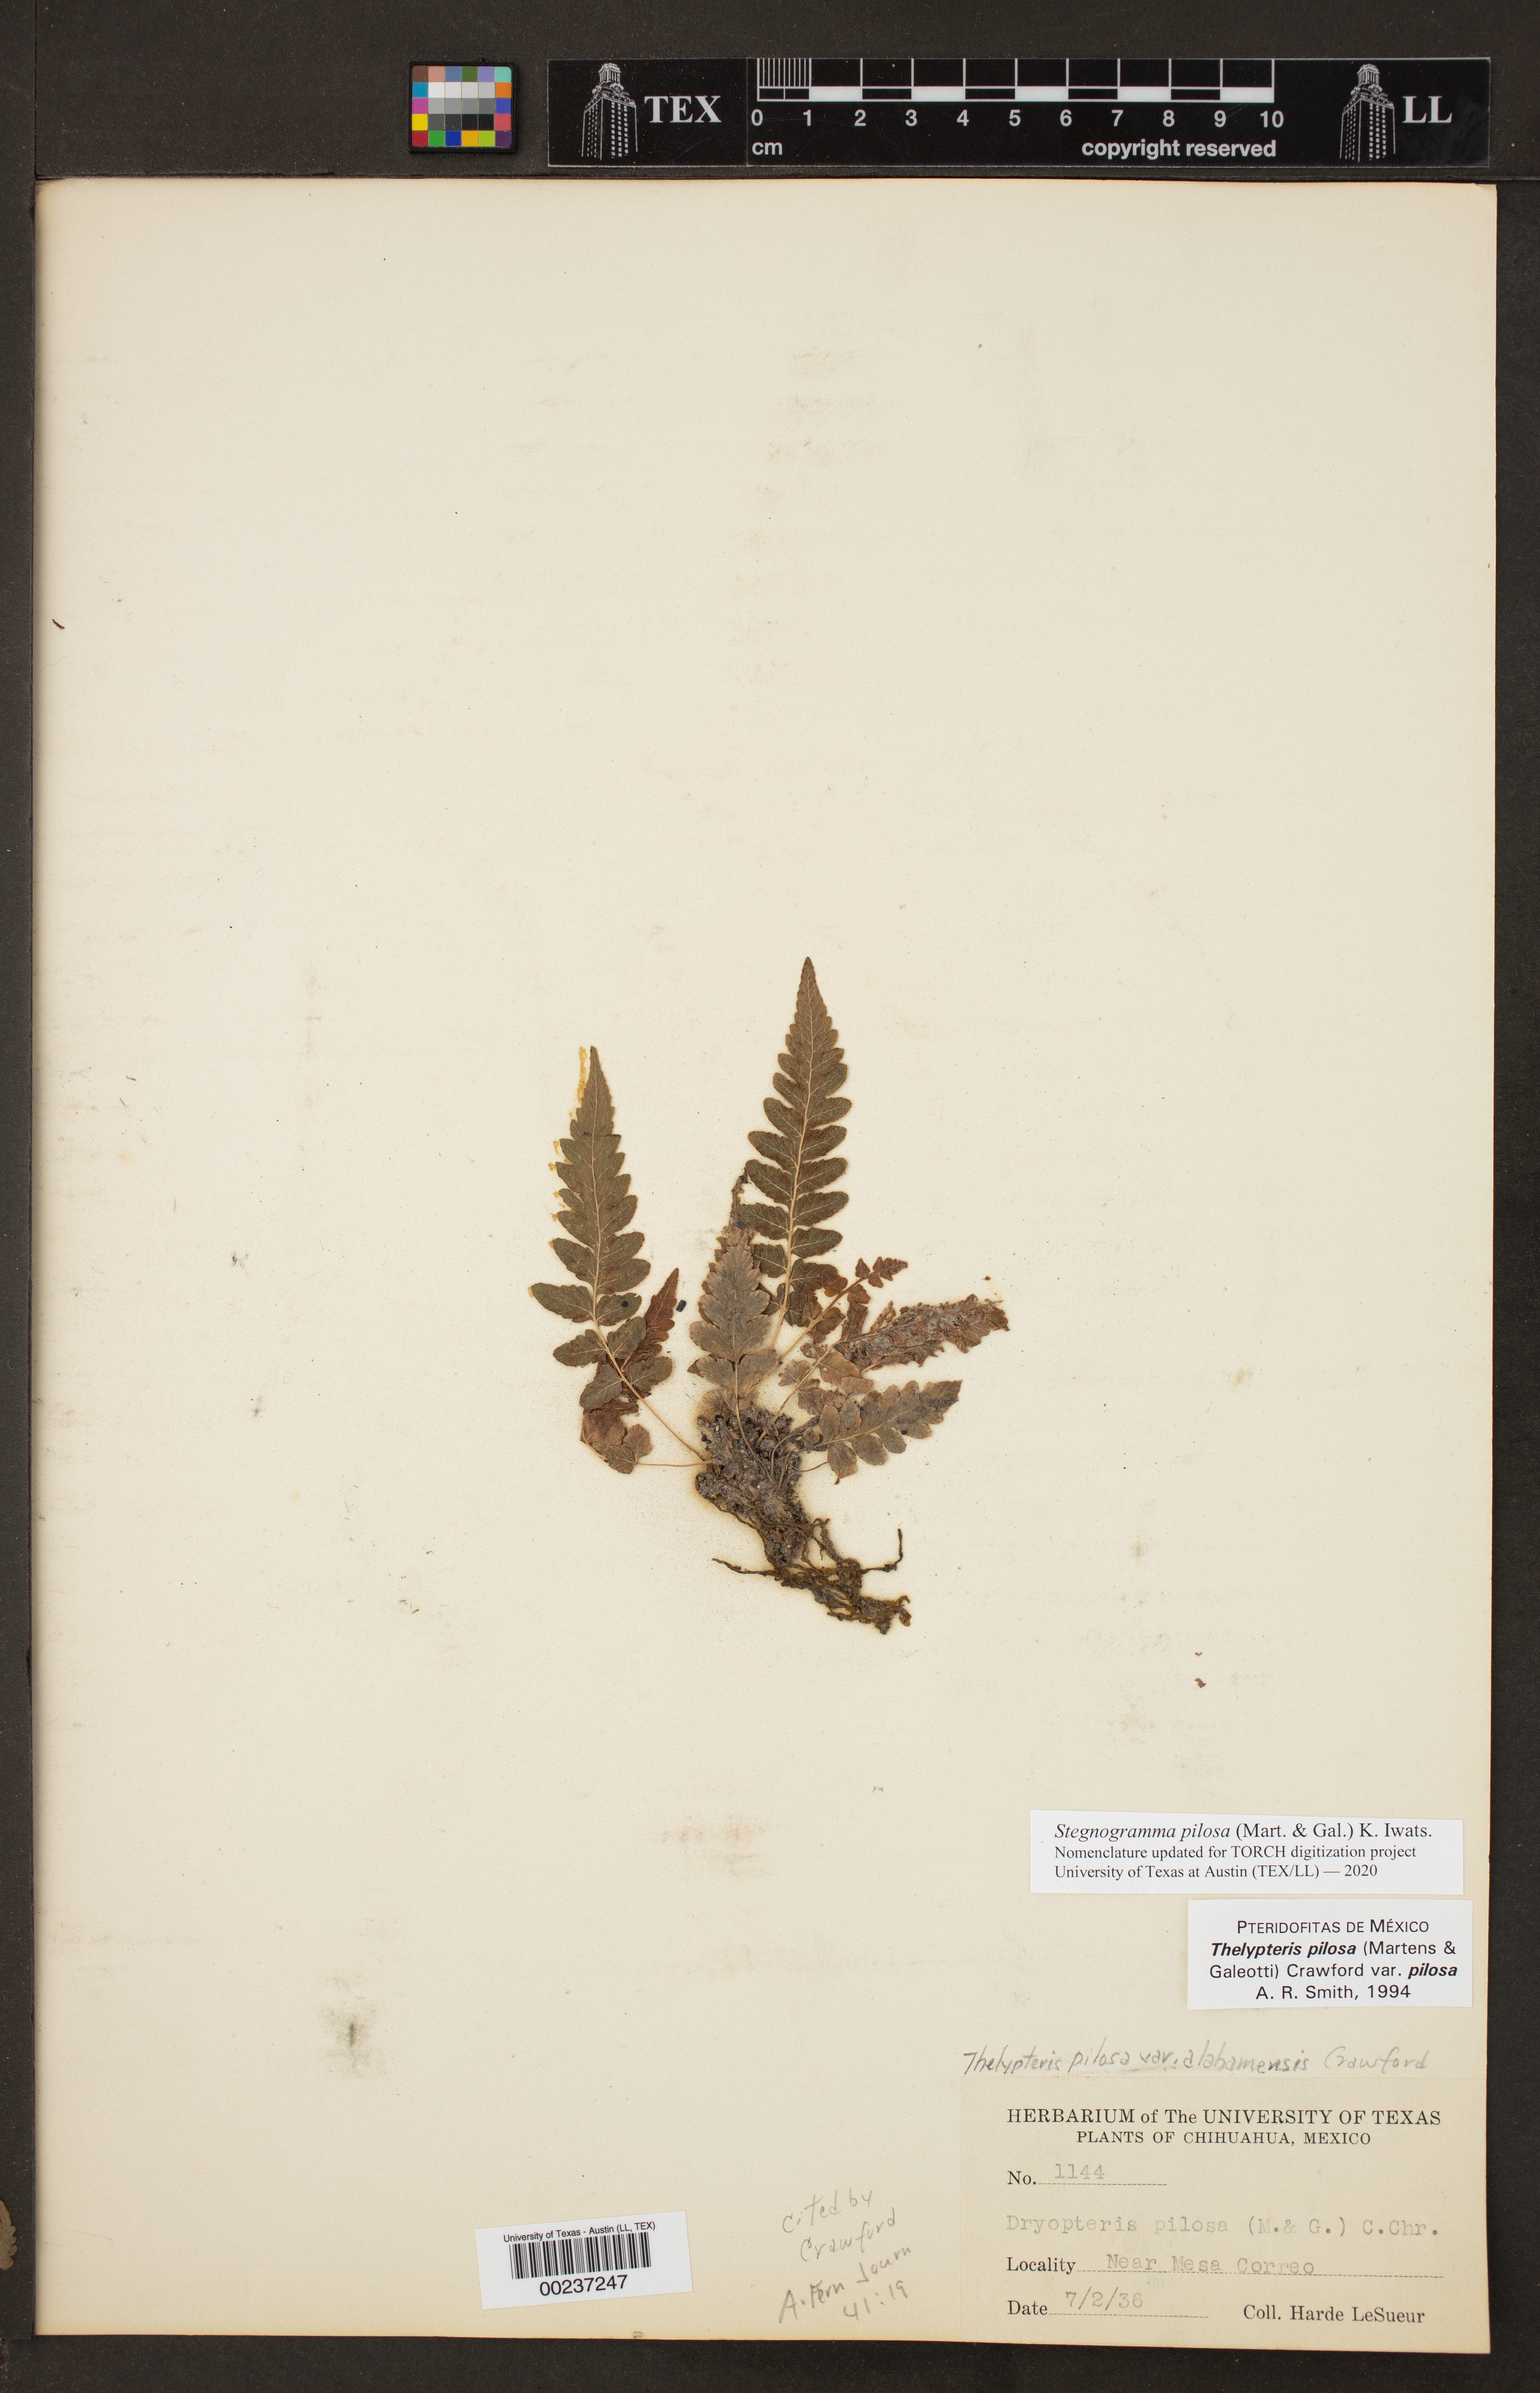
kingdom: Plantae
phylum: Tracheophyta
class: Polypodiopsida
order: Polypodiales
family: Thelypteridaceae
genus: Leptogramma
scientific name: Leptogramma pilosa
